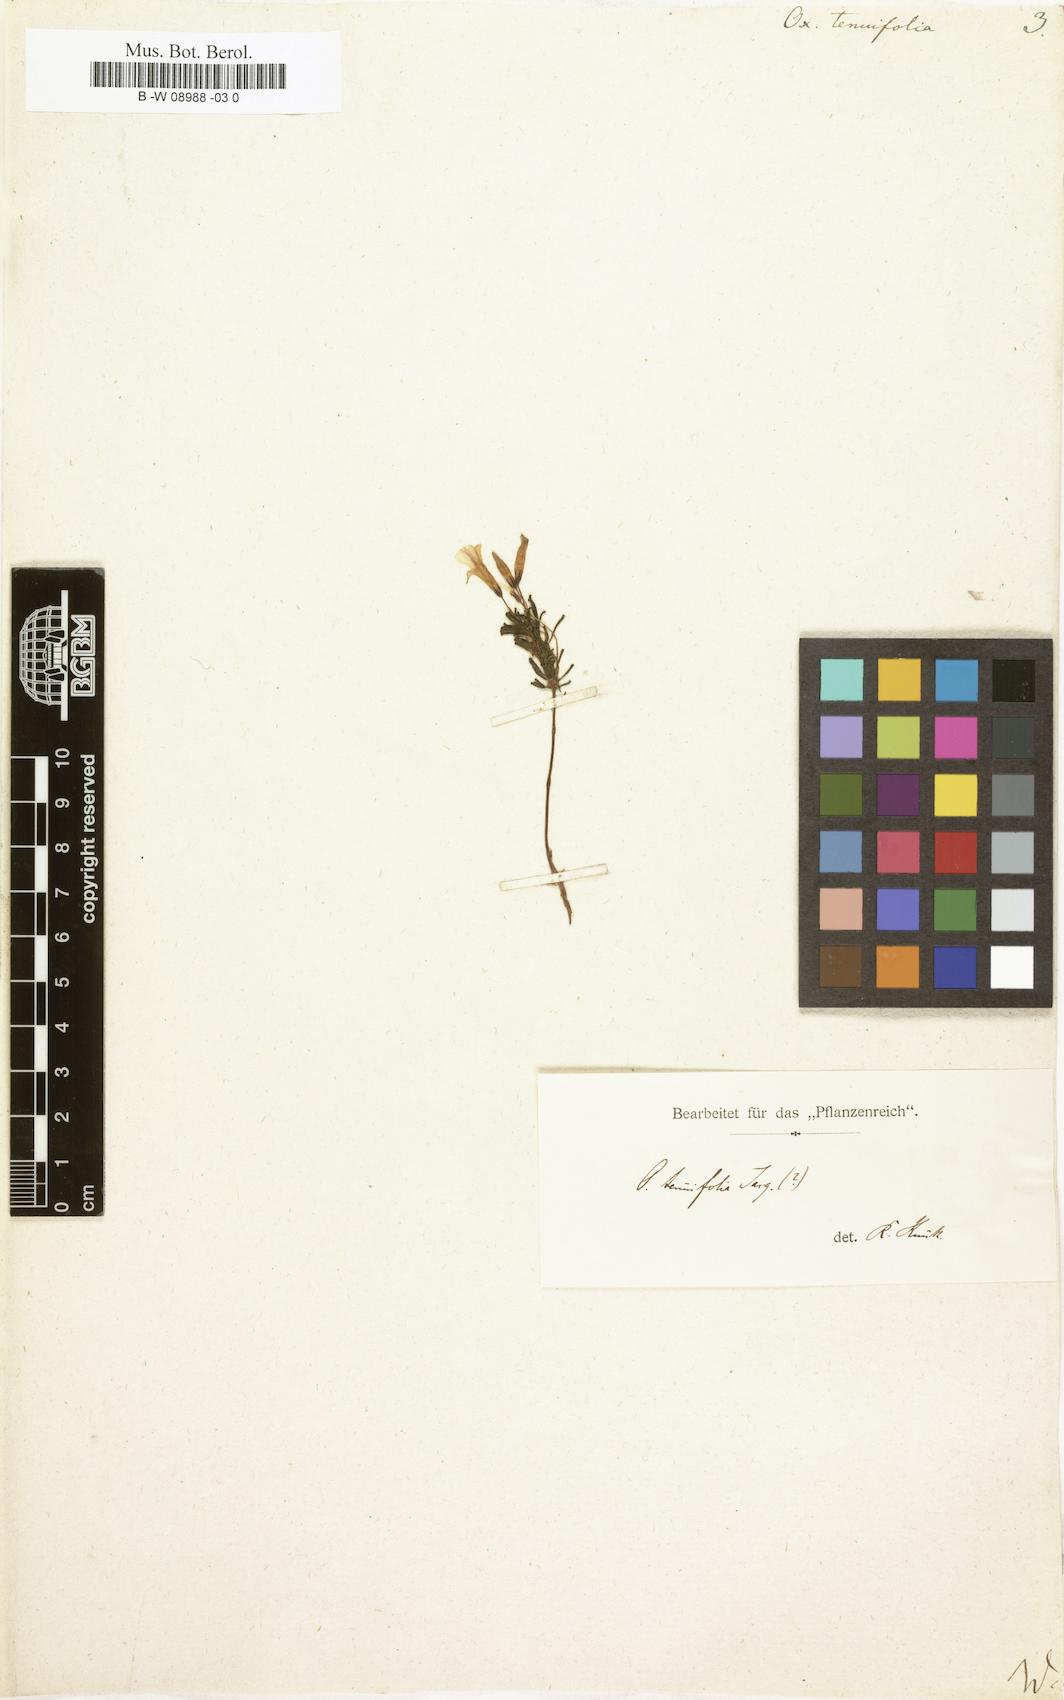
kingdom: Plantae
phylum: Tracheophyta
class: Magnoliopsida
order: Oxalidales
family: Oxalidaceae
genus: Oxalis
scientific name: Oxalis tenuifolia
